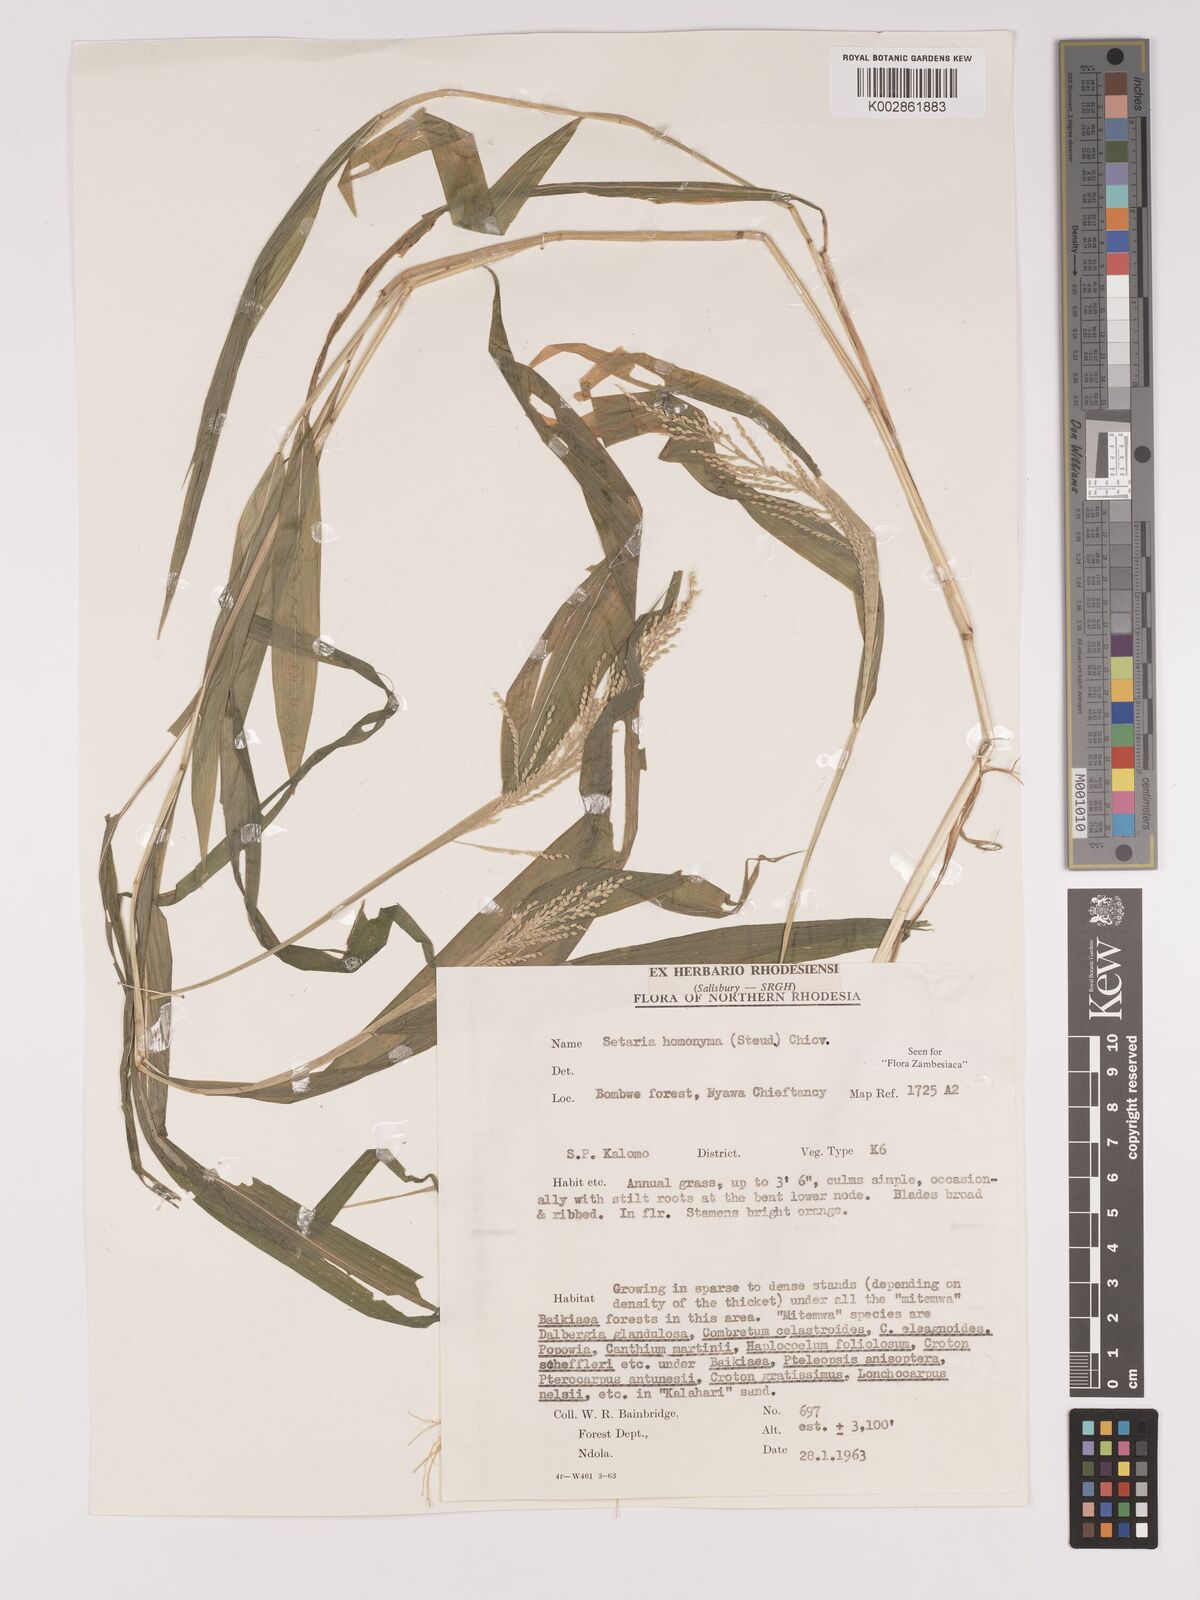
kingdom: Plantae
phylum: Tracheophyta
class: Liliopsida
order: Poales
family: Poaceae
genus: Setaria
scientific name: Setaria homonyma
